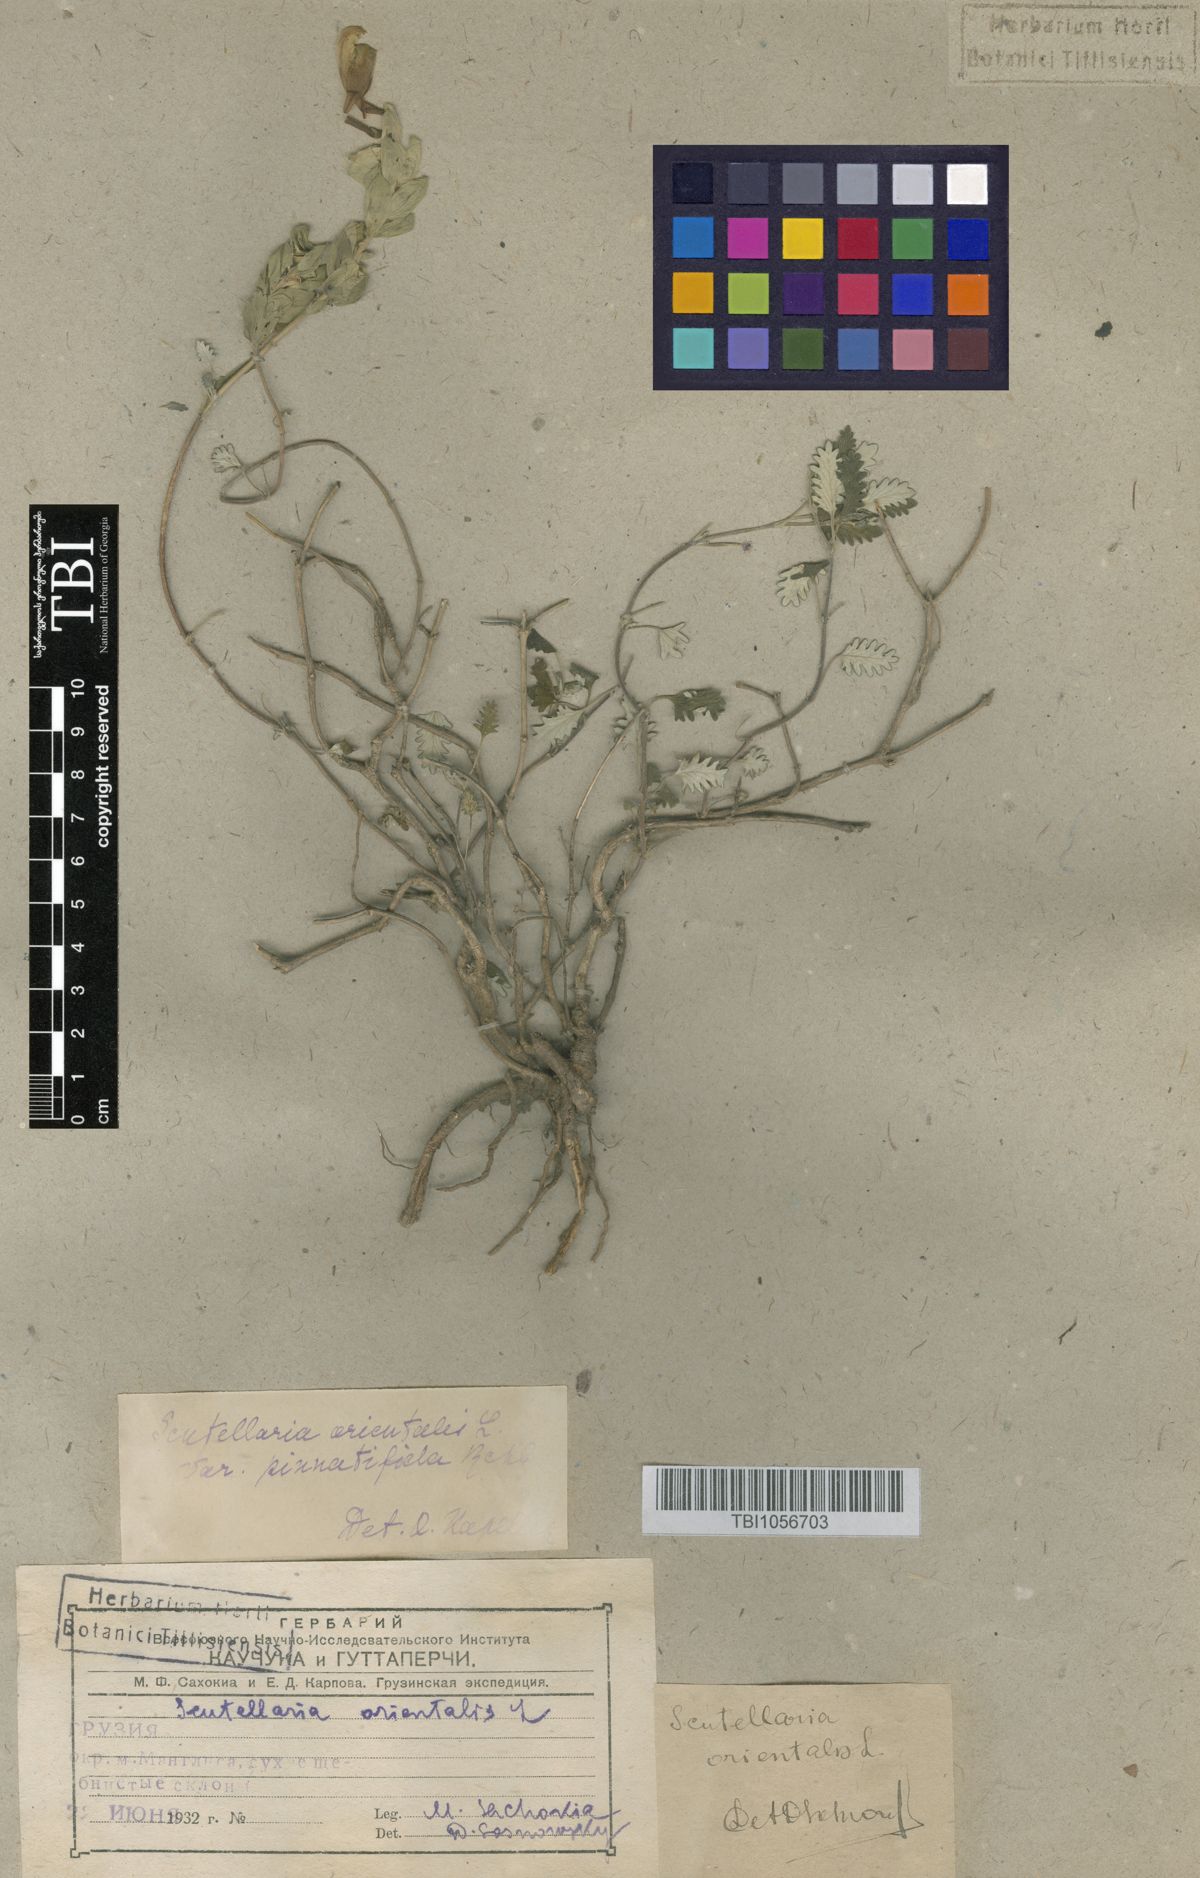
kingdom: Plantae
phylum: Tracheophyta
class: Magnoliopsida
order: Lamiales
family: Lamiaceae
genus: Scutellaria
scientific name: Scutellaria orientalis
